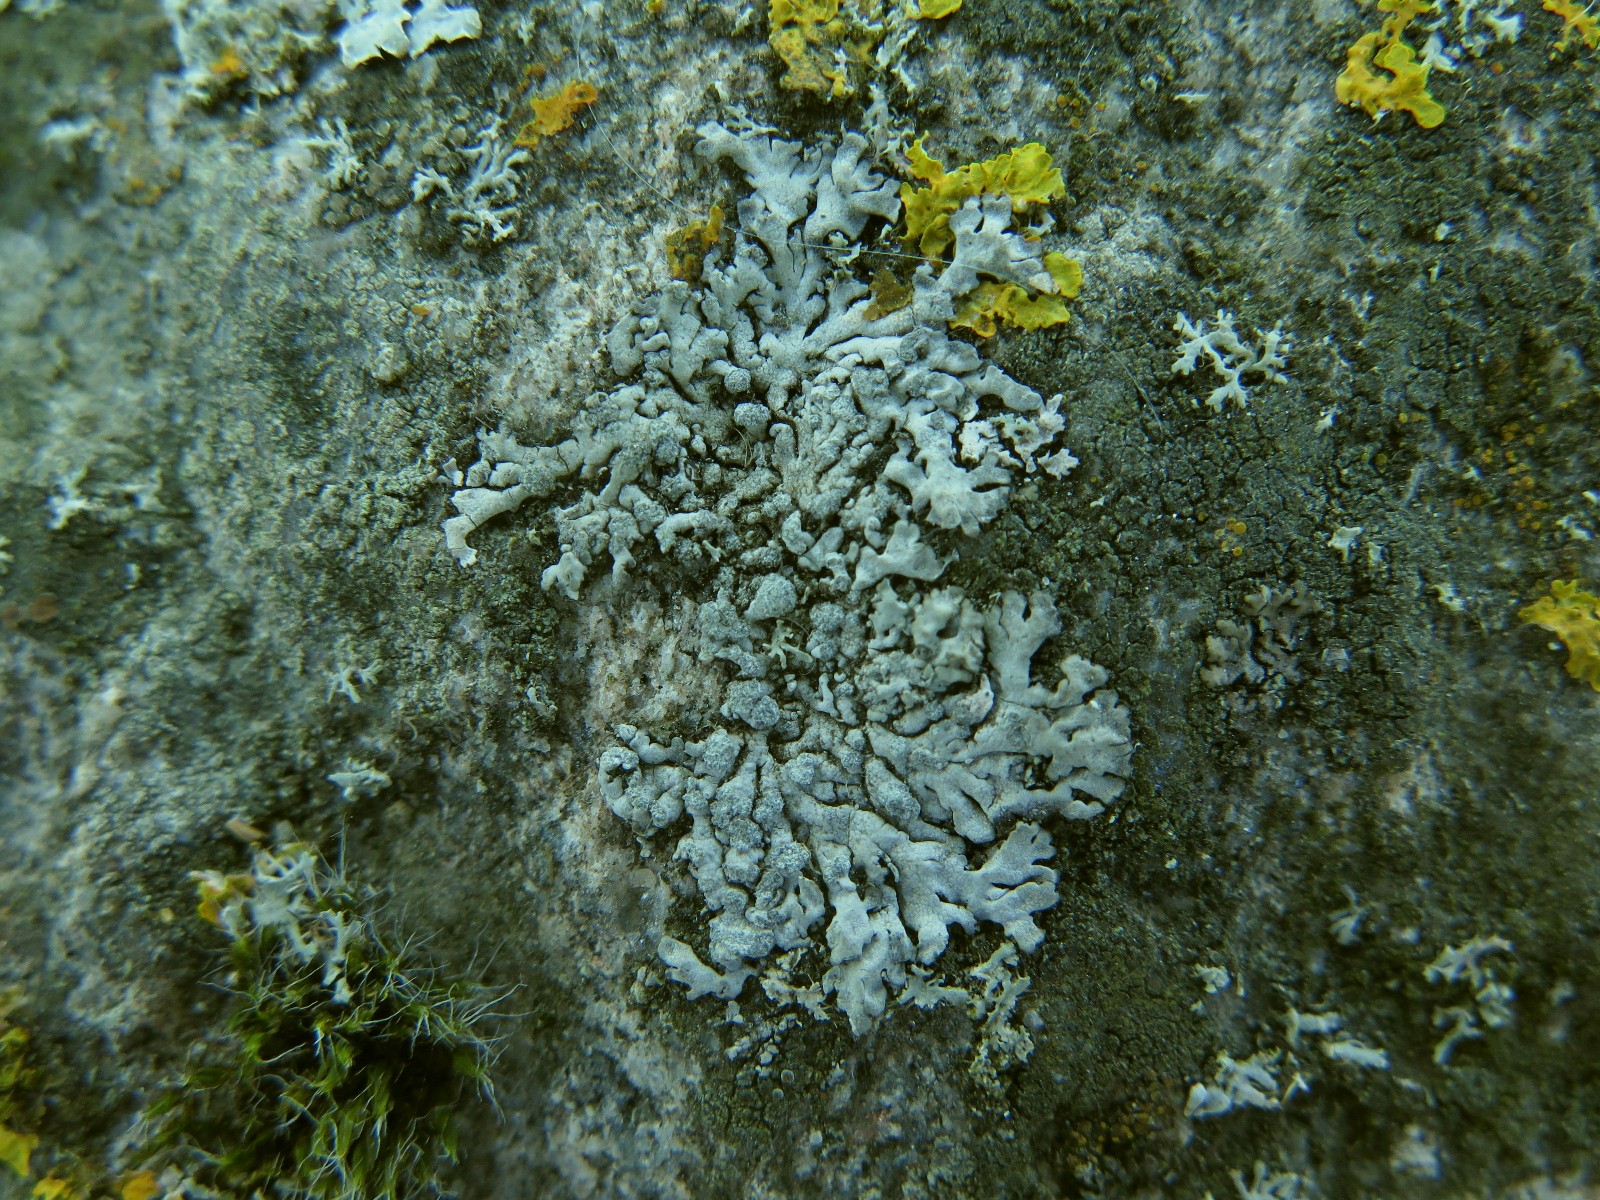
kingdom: Fungi
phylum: Ascomycota
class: Lecanoromycetes
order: Caliciales
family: Physciaceae
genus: Physcia
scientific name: Physcia caesia
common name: blågrå rosetlav
